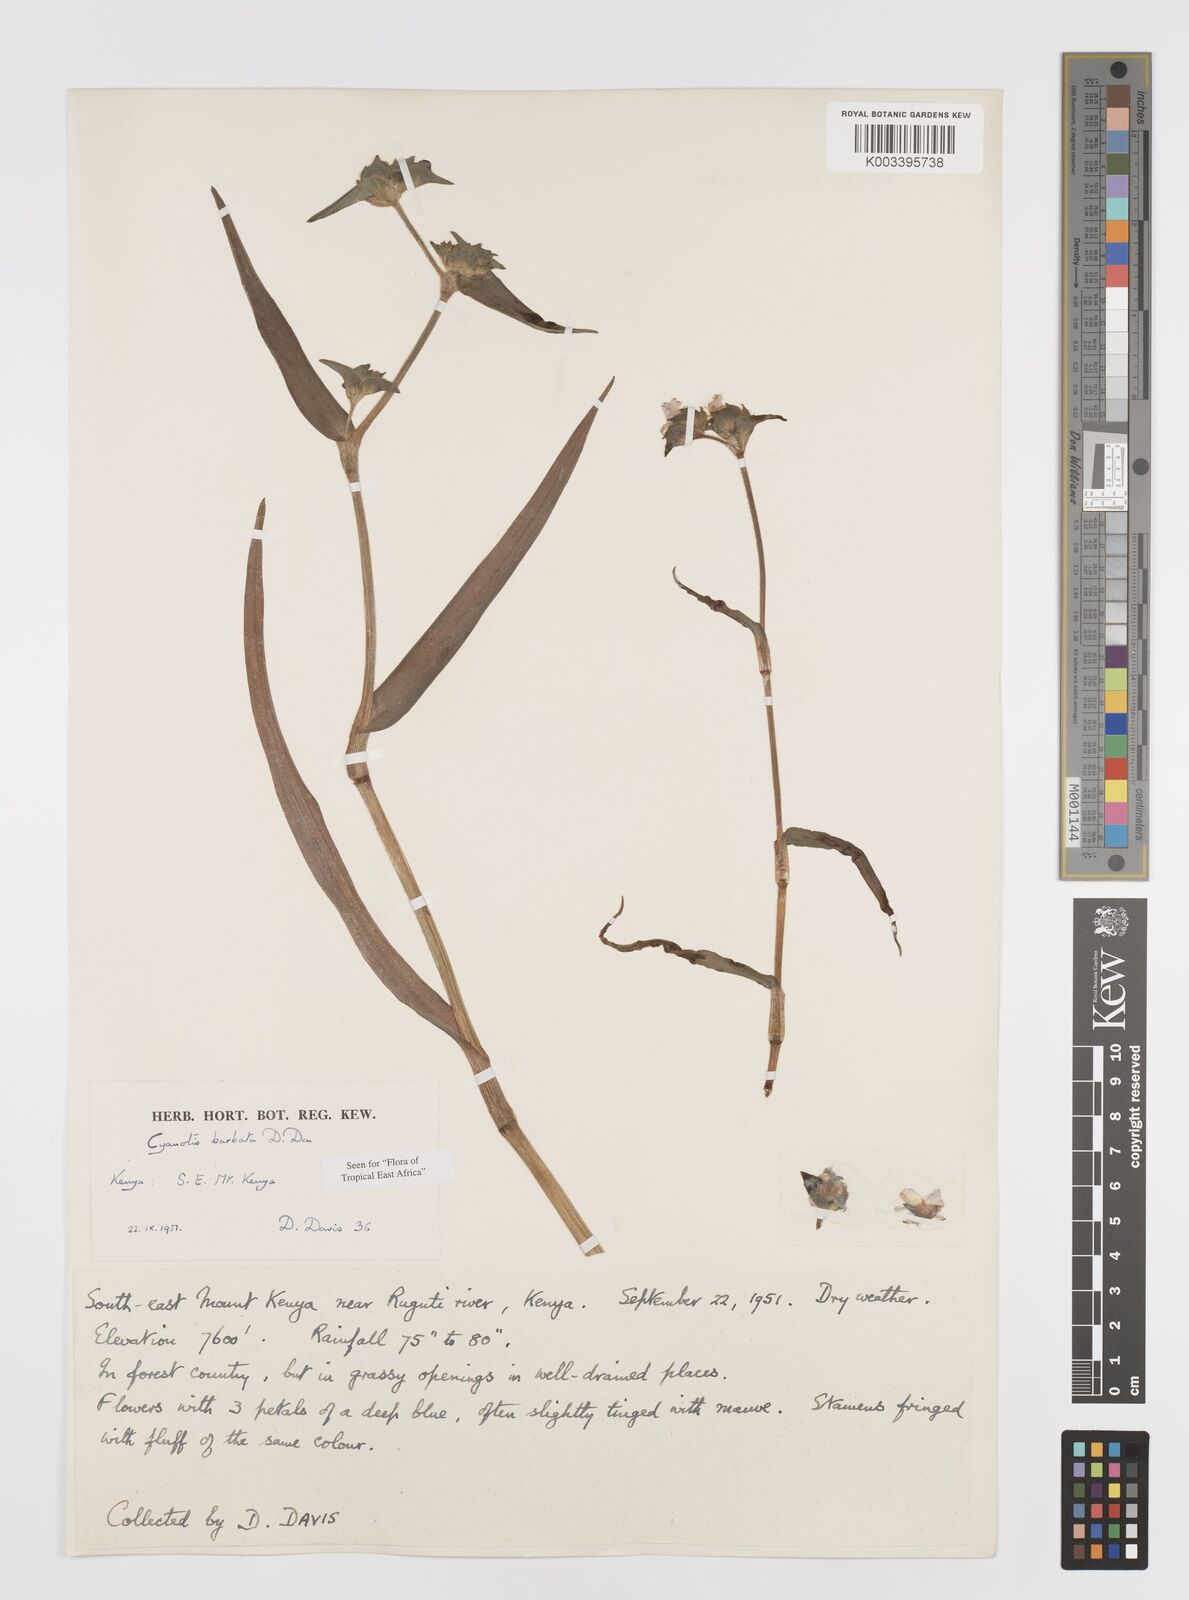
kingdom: Plantae
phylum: Tracheophyta
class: Liliopsida
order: Commelinales
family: Commelinaceae
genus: Cyanotis
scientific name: Cyanotis vaga
